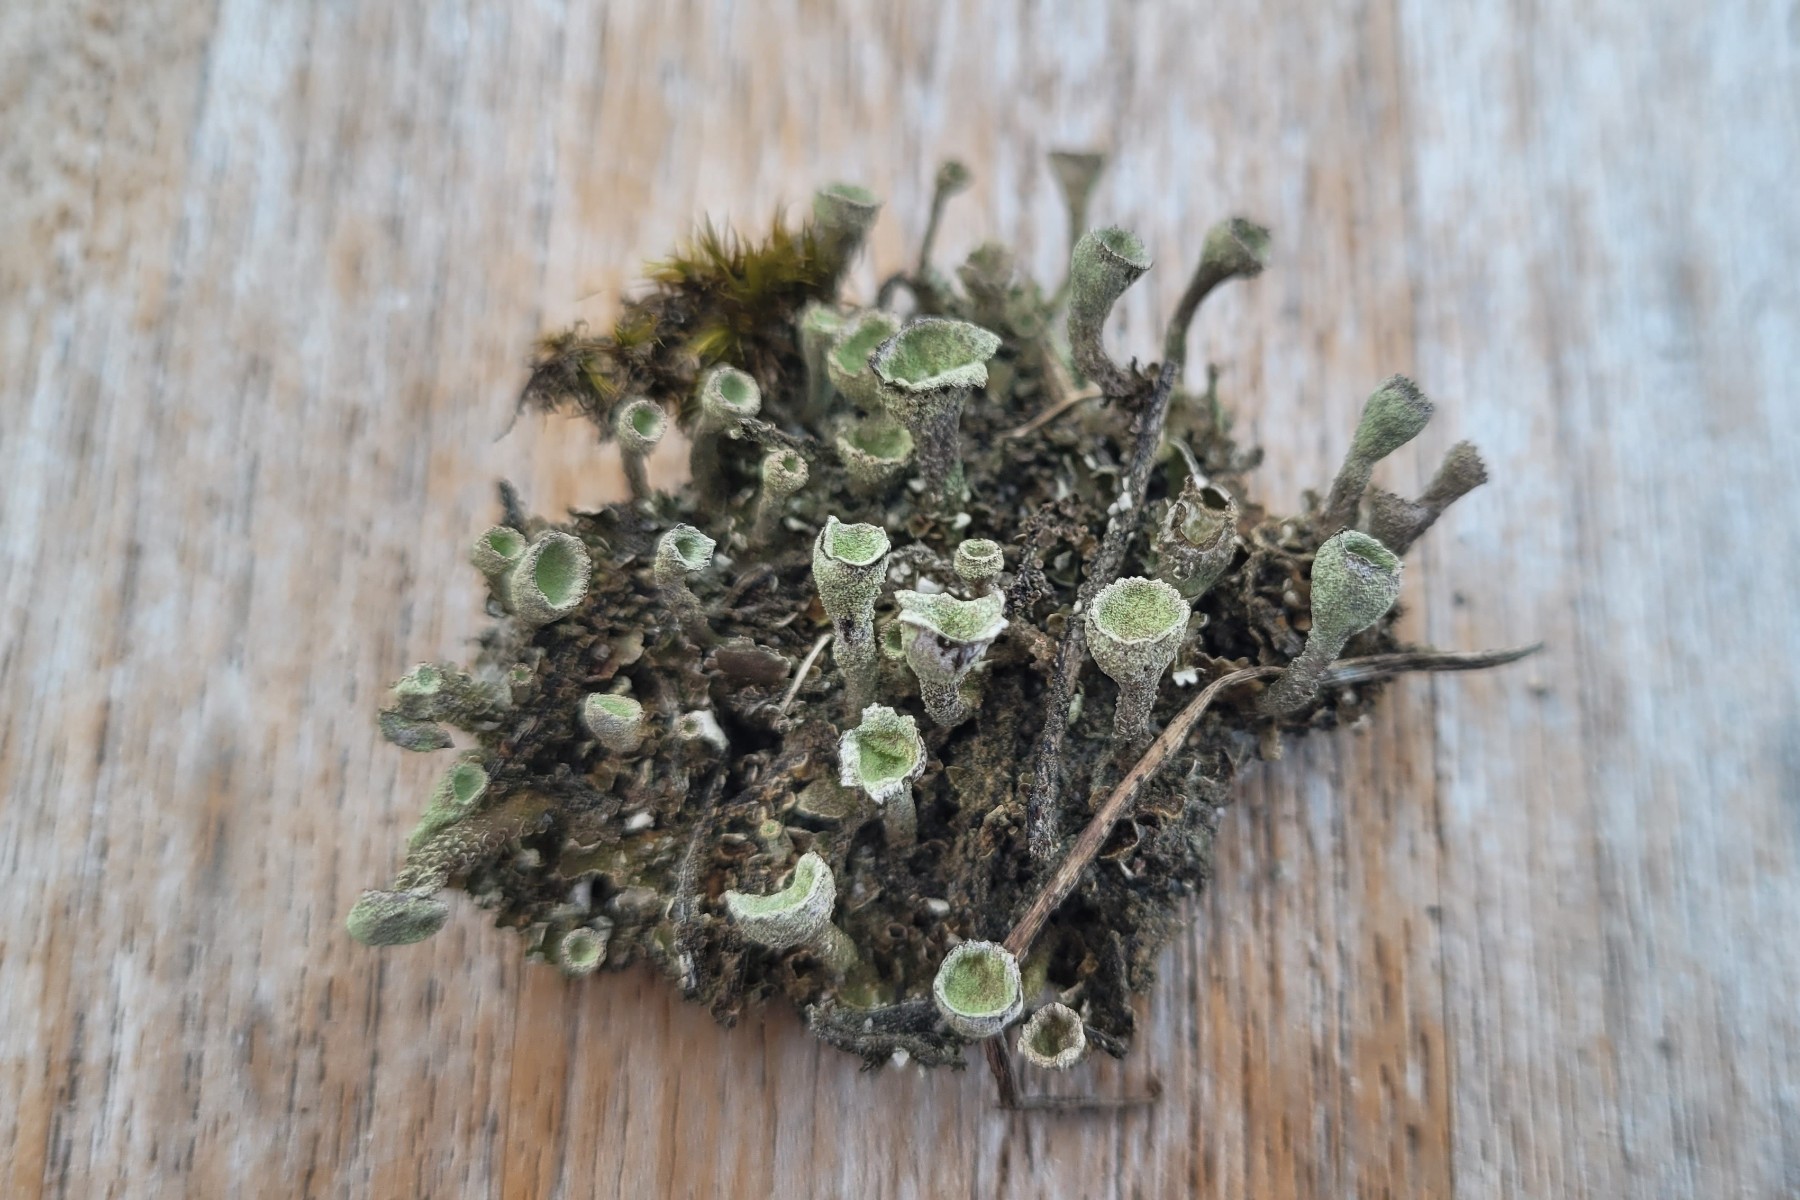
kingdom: Fungi
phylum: Ascomycota
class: Lecanoromycetes
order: Lecanorales
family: Cladoniaceae
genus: Cladonia
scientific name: Cladonia
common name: brungrøn bægerlav
